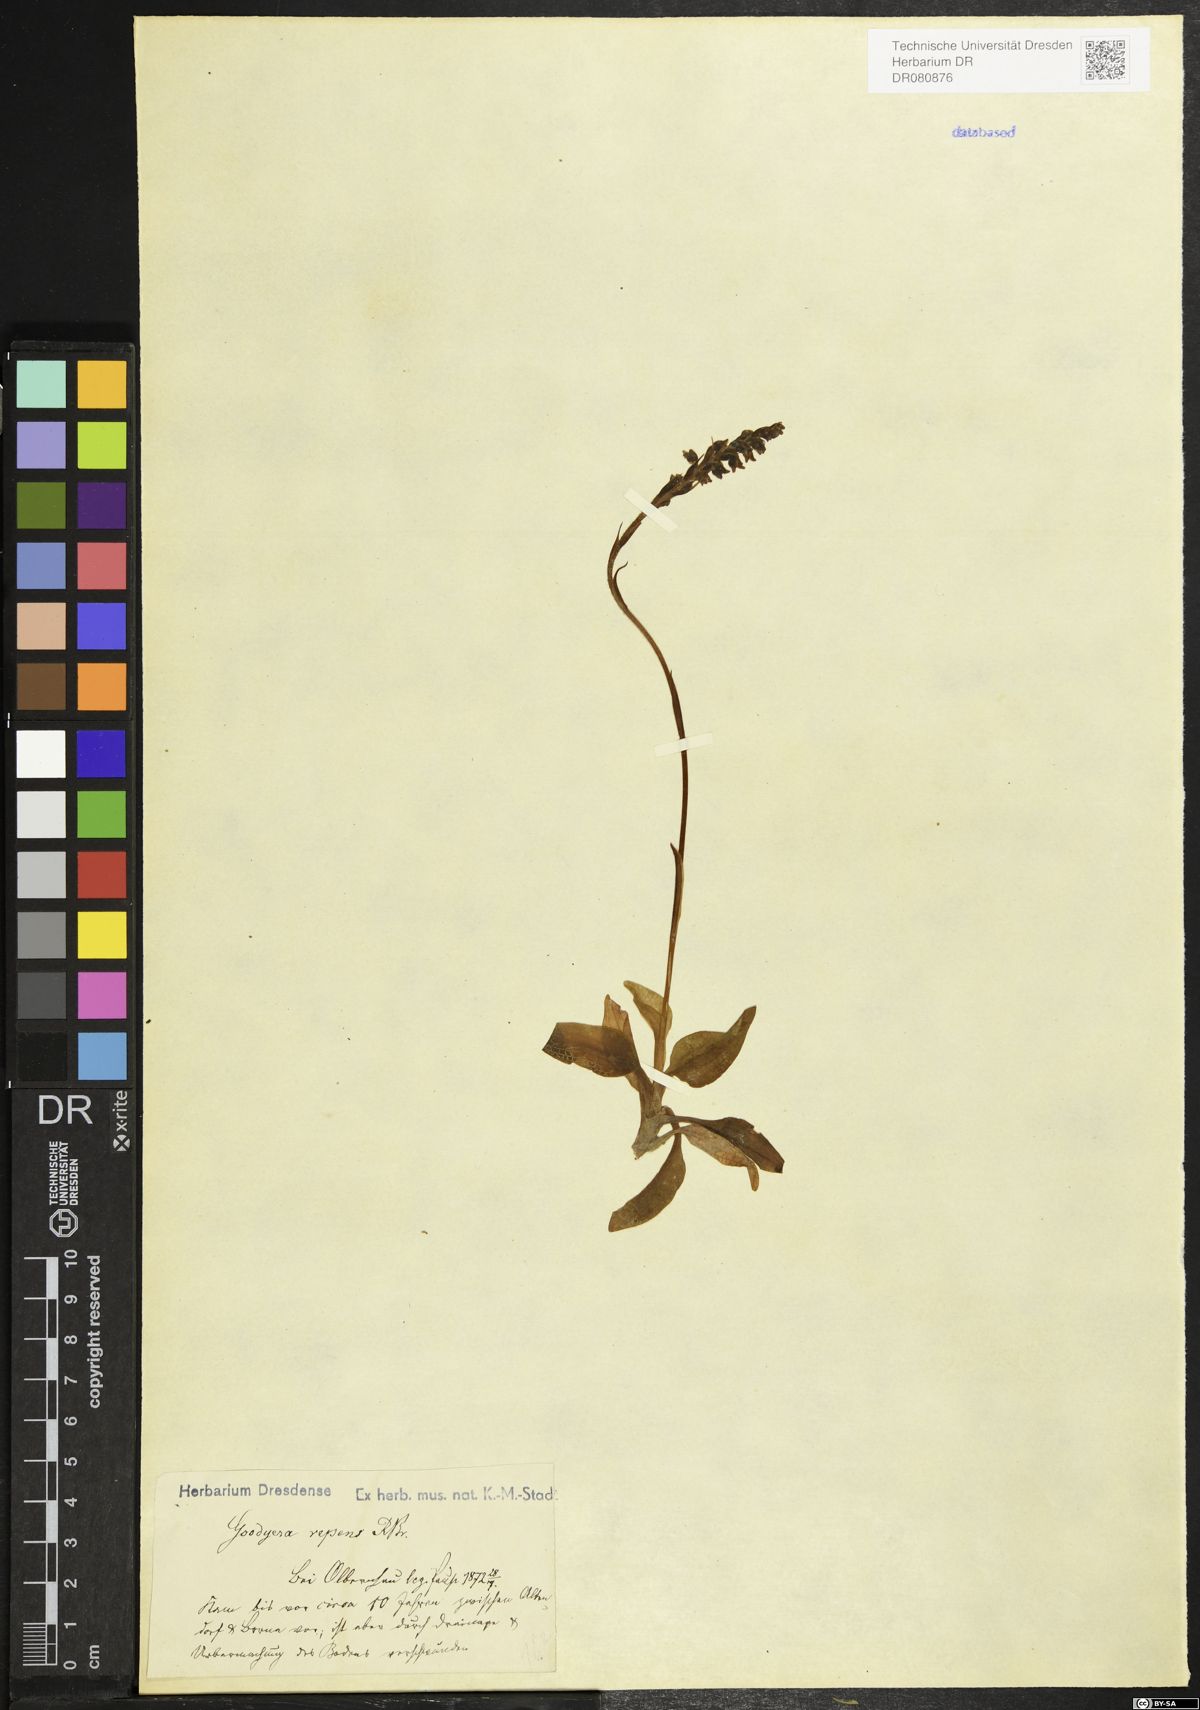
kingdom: Plantae
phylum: Tracheophyta
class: Liliopsida
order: Asparagales
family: Orchidaceae
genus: Goodyera
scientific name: Goodyera repens
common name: Creeping lady's-tresses
